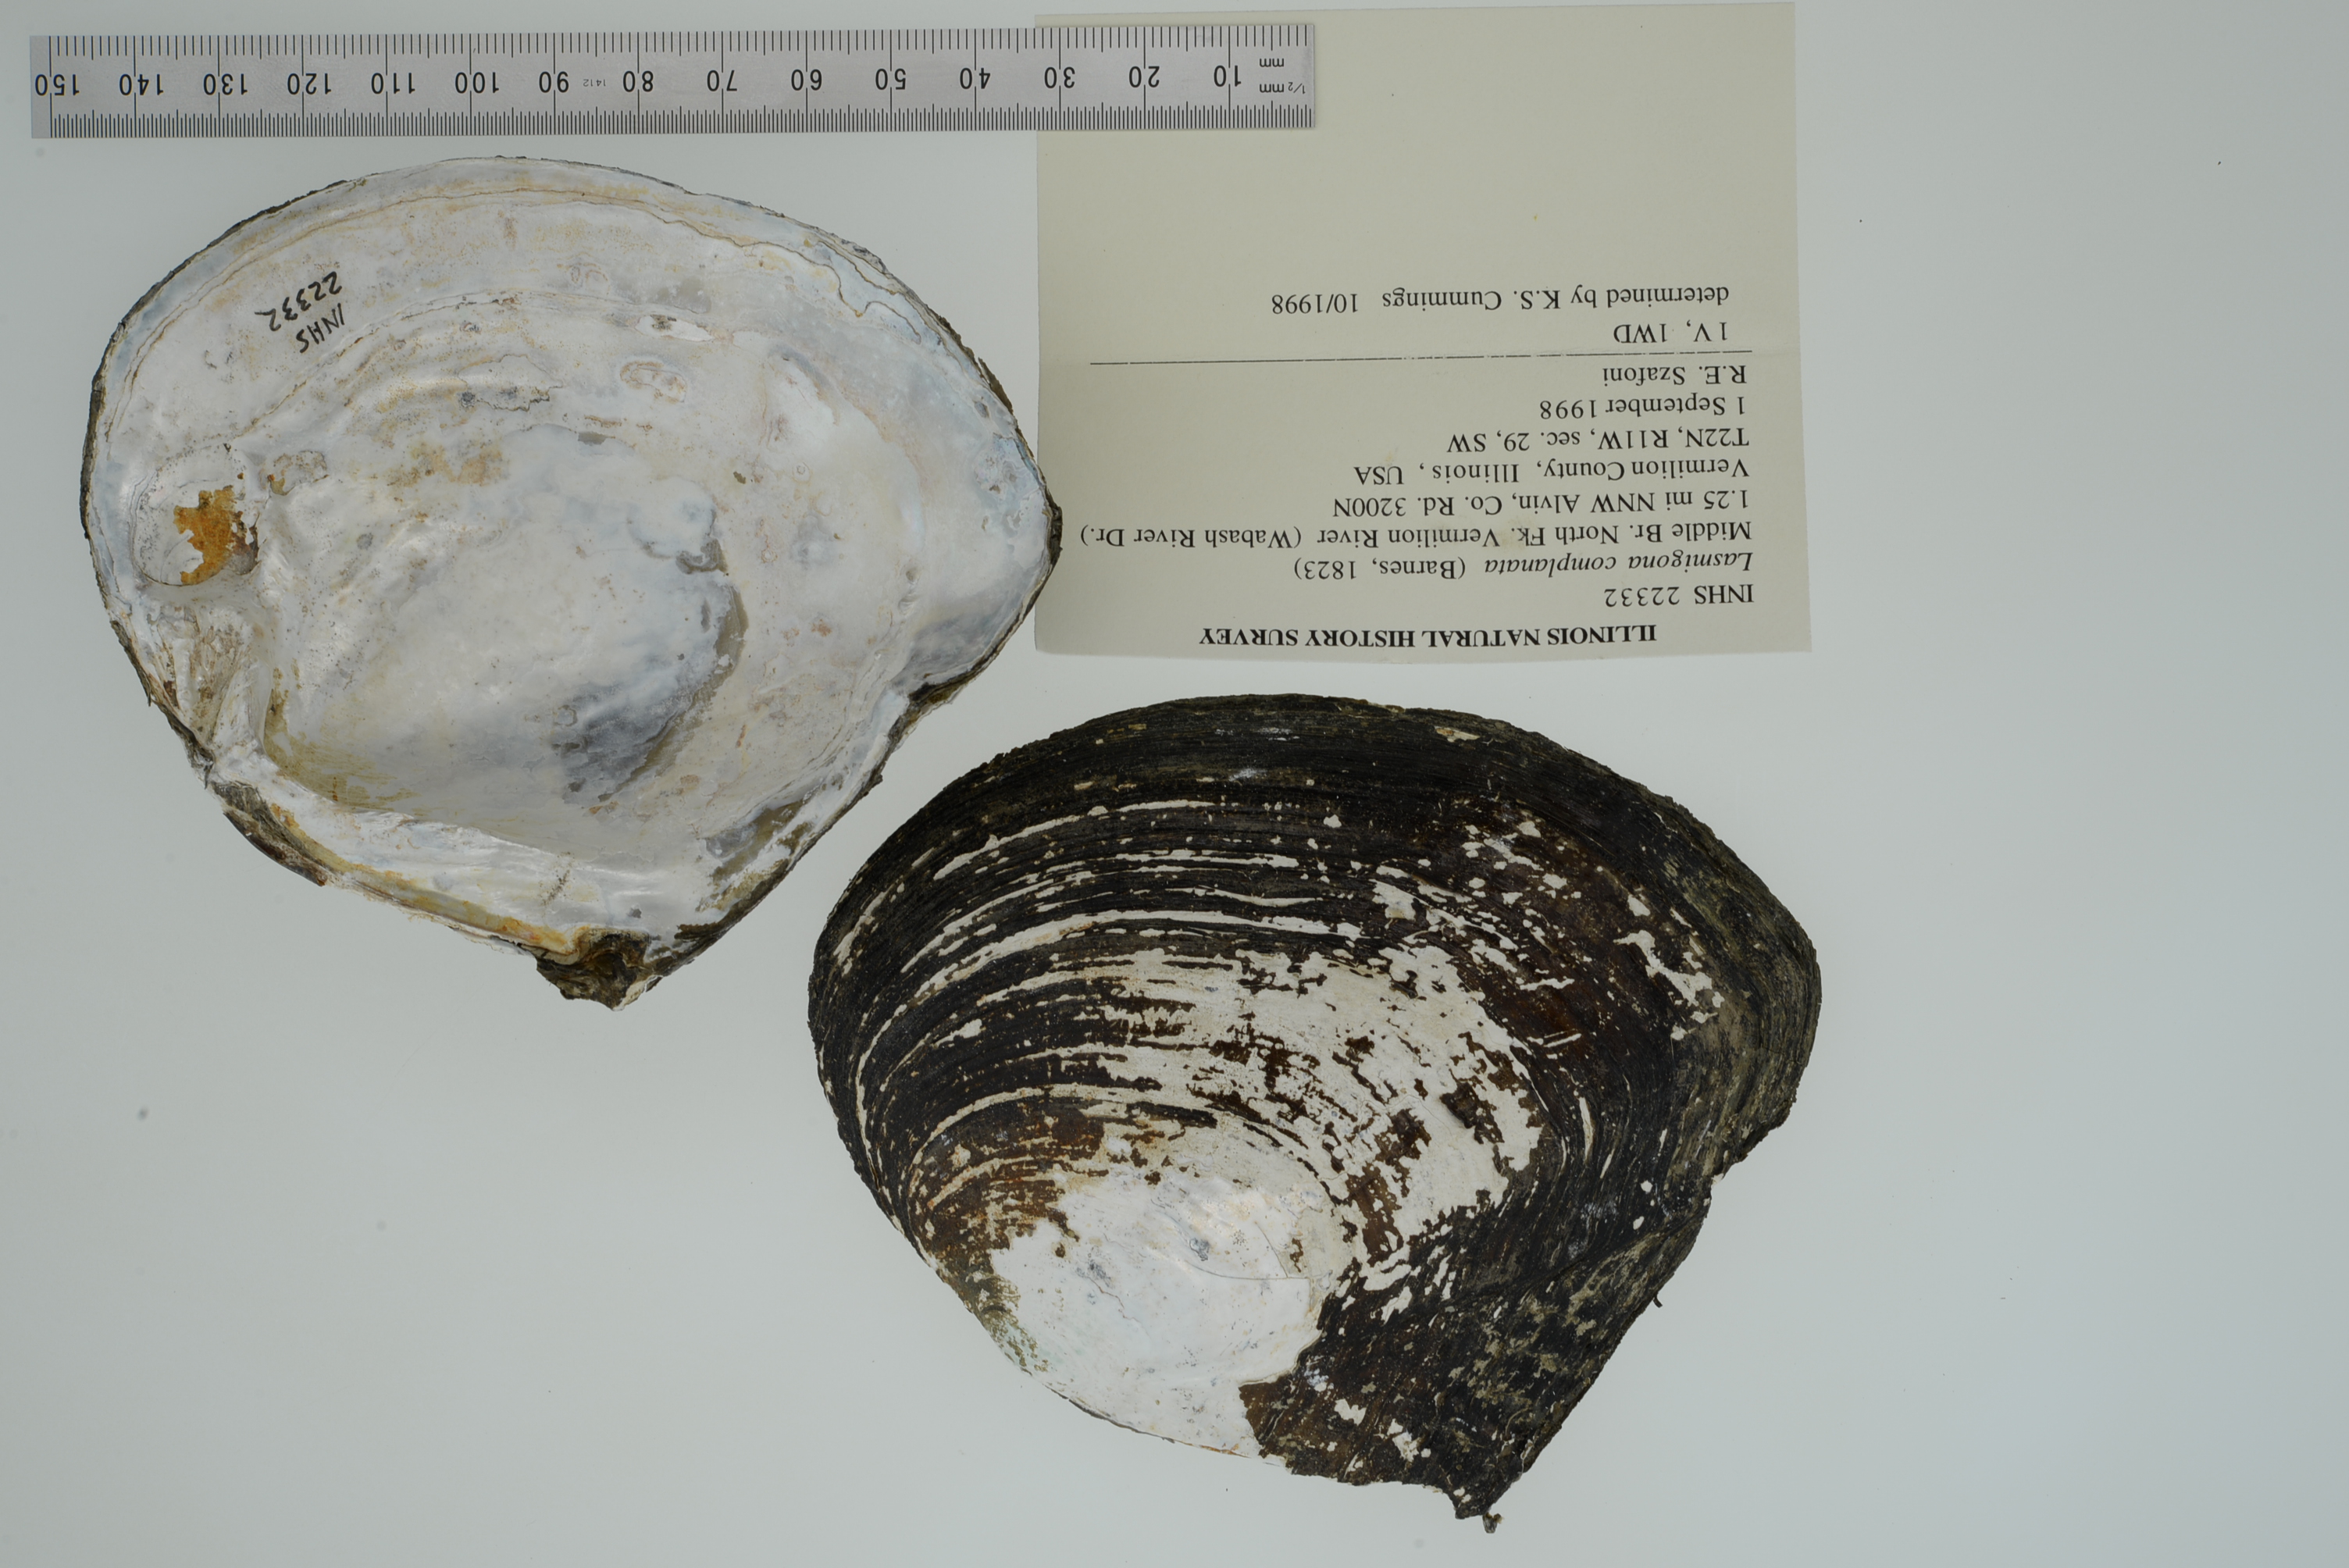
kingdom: Animalia
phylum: Mollusca
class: Bivalvia
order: Unionida
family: Unionidae
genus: Lasmigona
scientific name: Lasmigona complanata
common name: White heelsplitter
